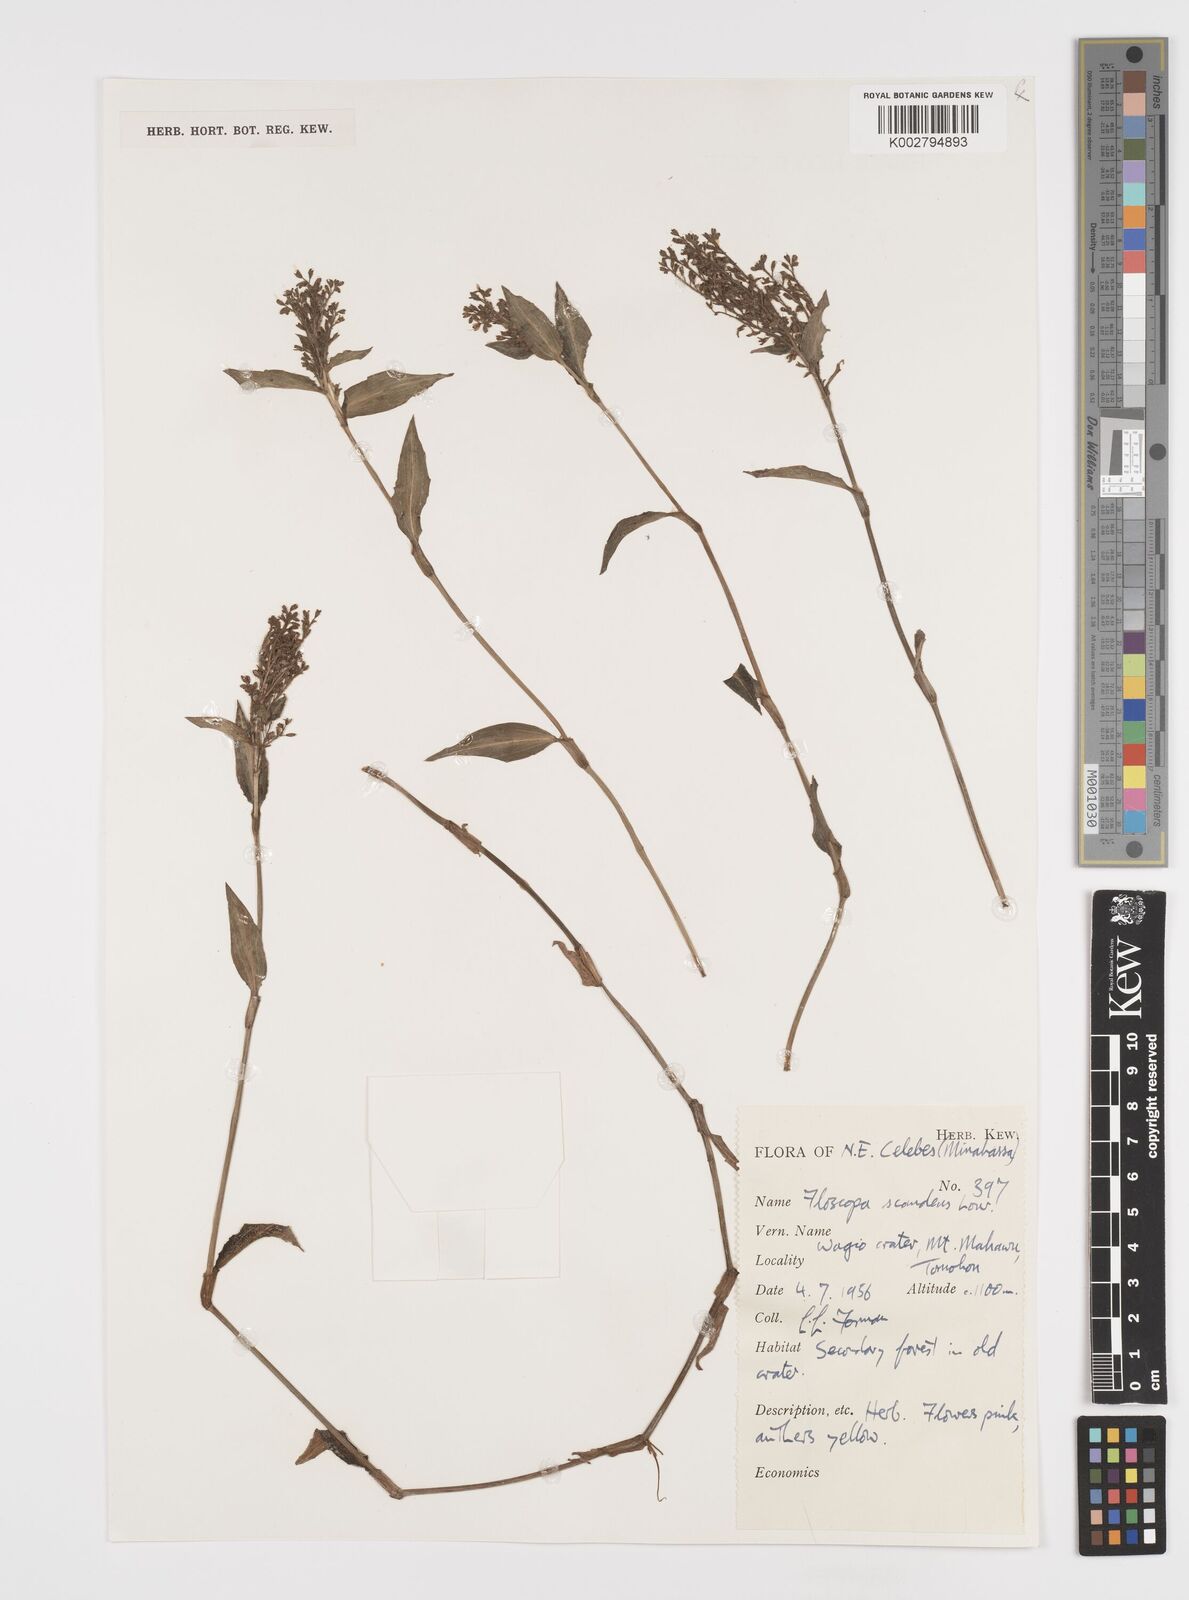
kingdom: Plantae
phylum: Tracheophyta
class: Liliopsida
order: Commelinales
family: Commelinaceae
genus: Floscopa
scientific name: Floscopa scandens
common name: Climbing flower cup
